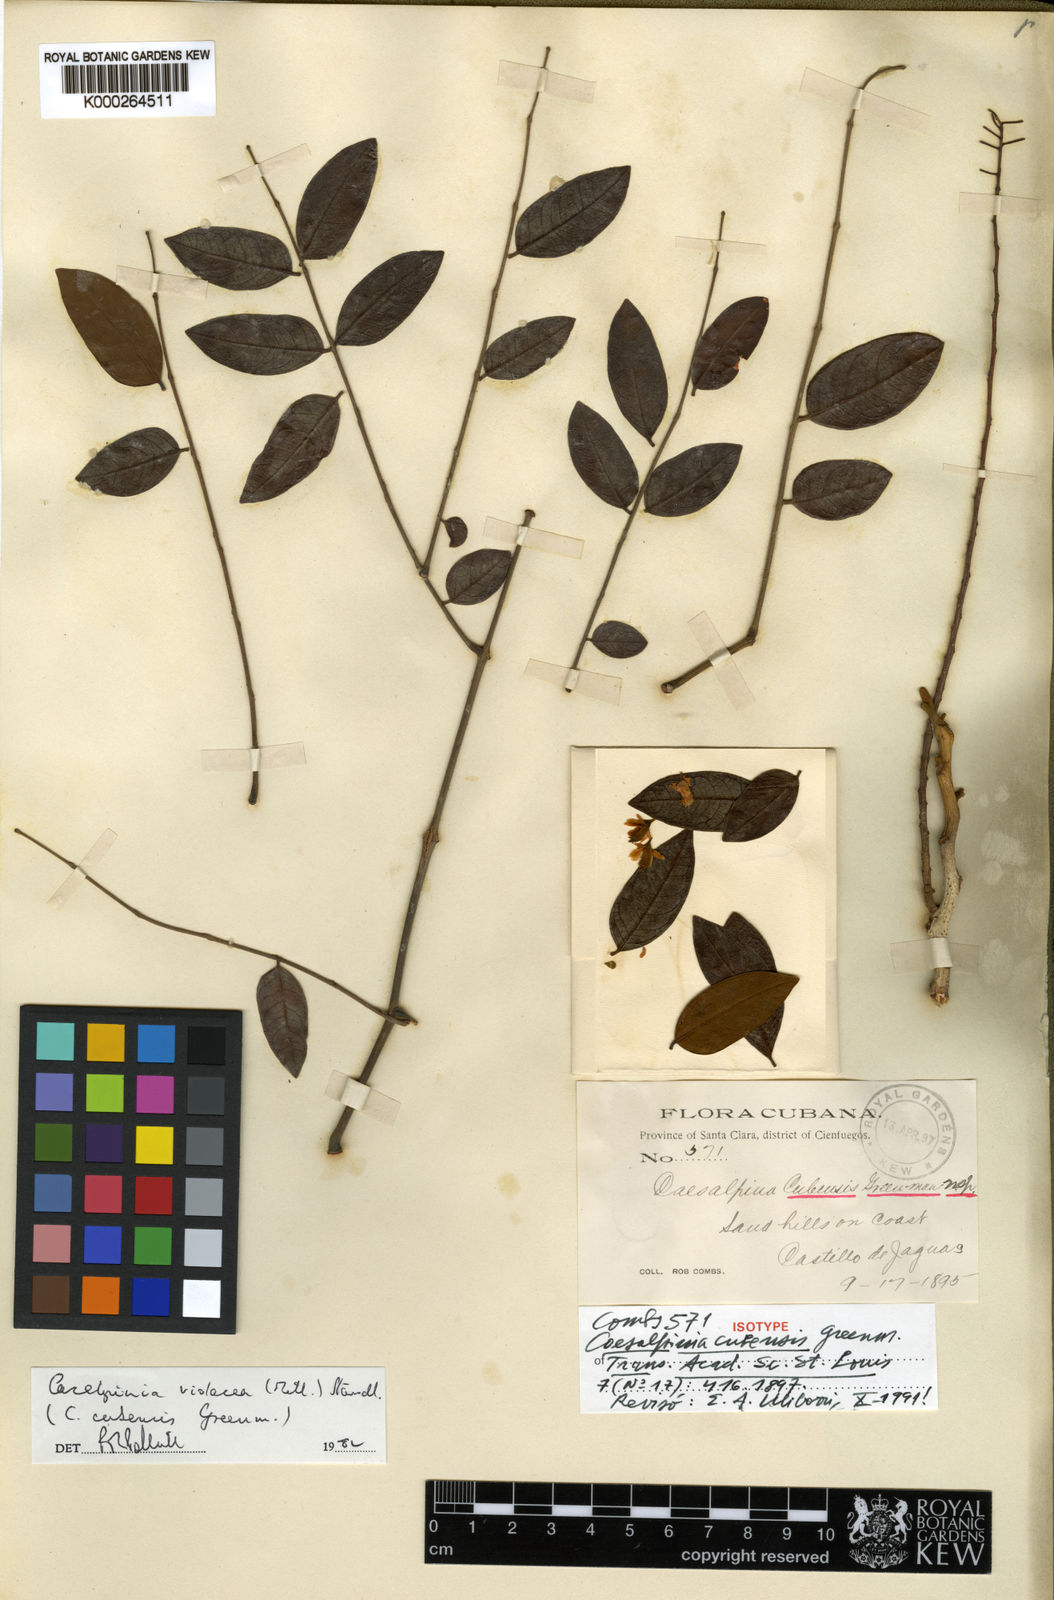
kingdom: Plantae
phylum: Tracheophyta
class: Magnoliopsida
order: Fabales
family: Fabaceae
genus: Coulteria
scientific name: Coulteria cubensis
